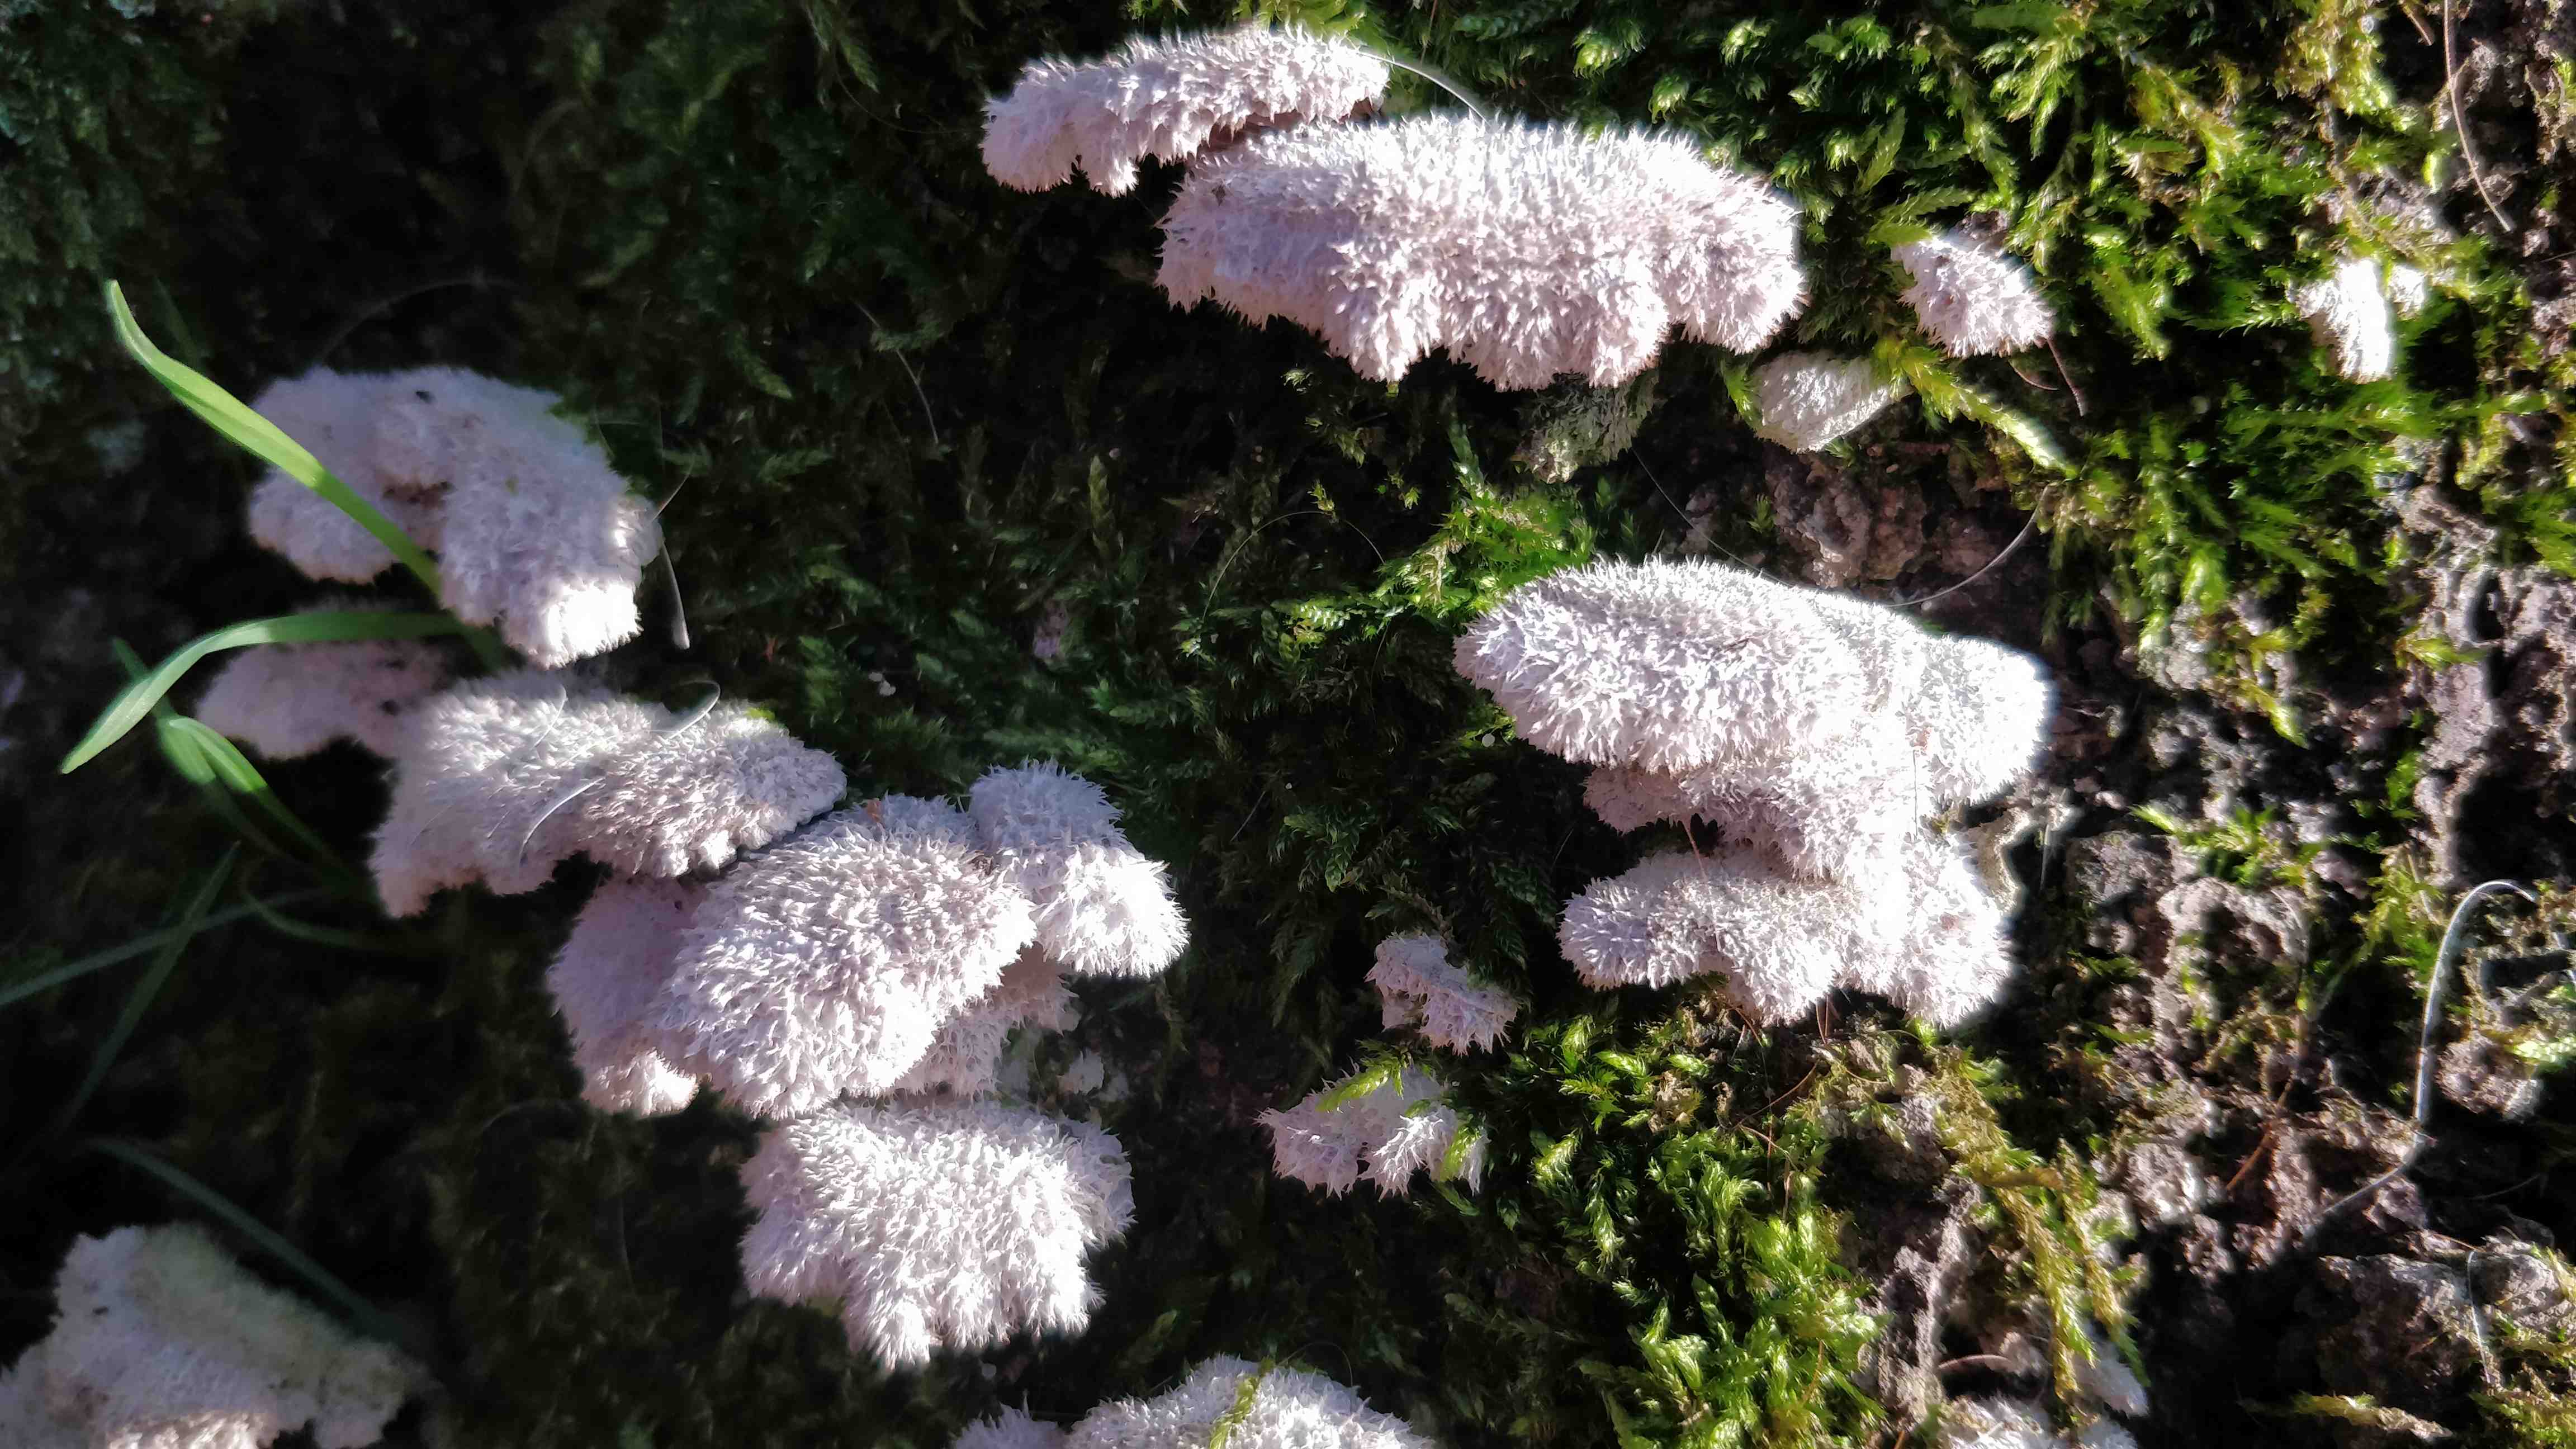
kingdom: Fungi
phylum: Basidiomycota
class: Agaricomycetes
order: Agaricales
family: Schizophyllaceae
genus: Schizophyllum
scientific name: Schizophyllum commune
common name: kløvblad
